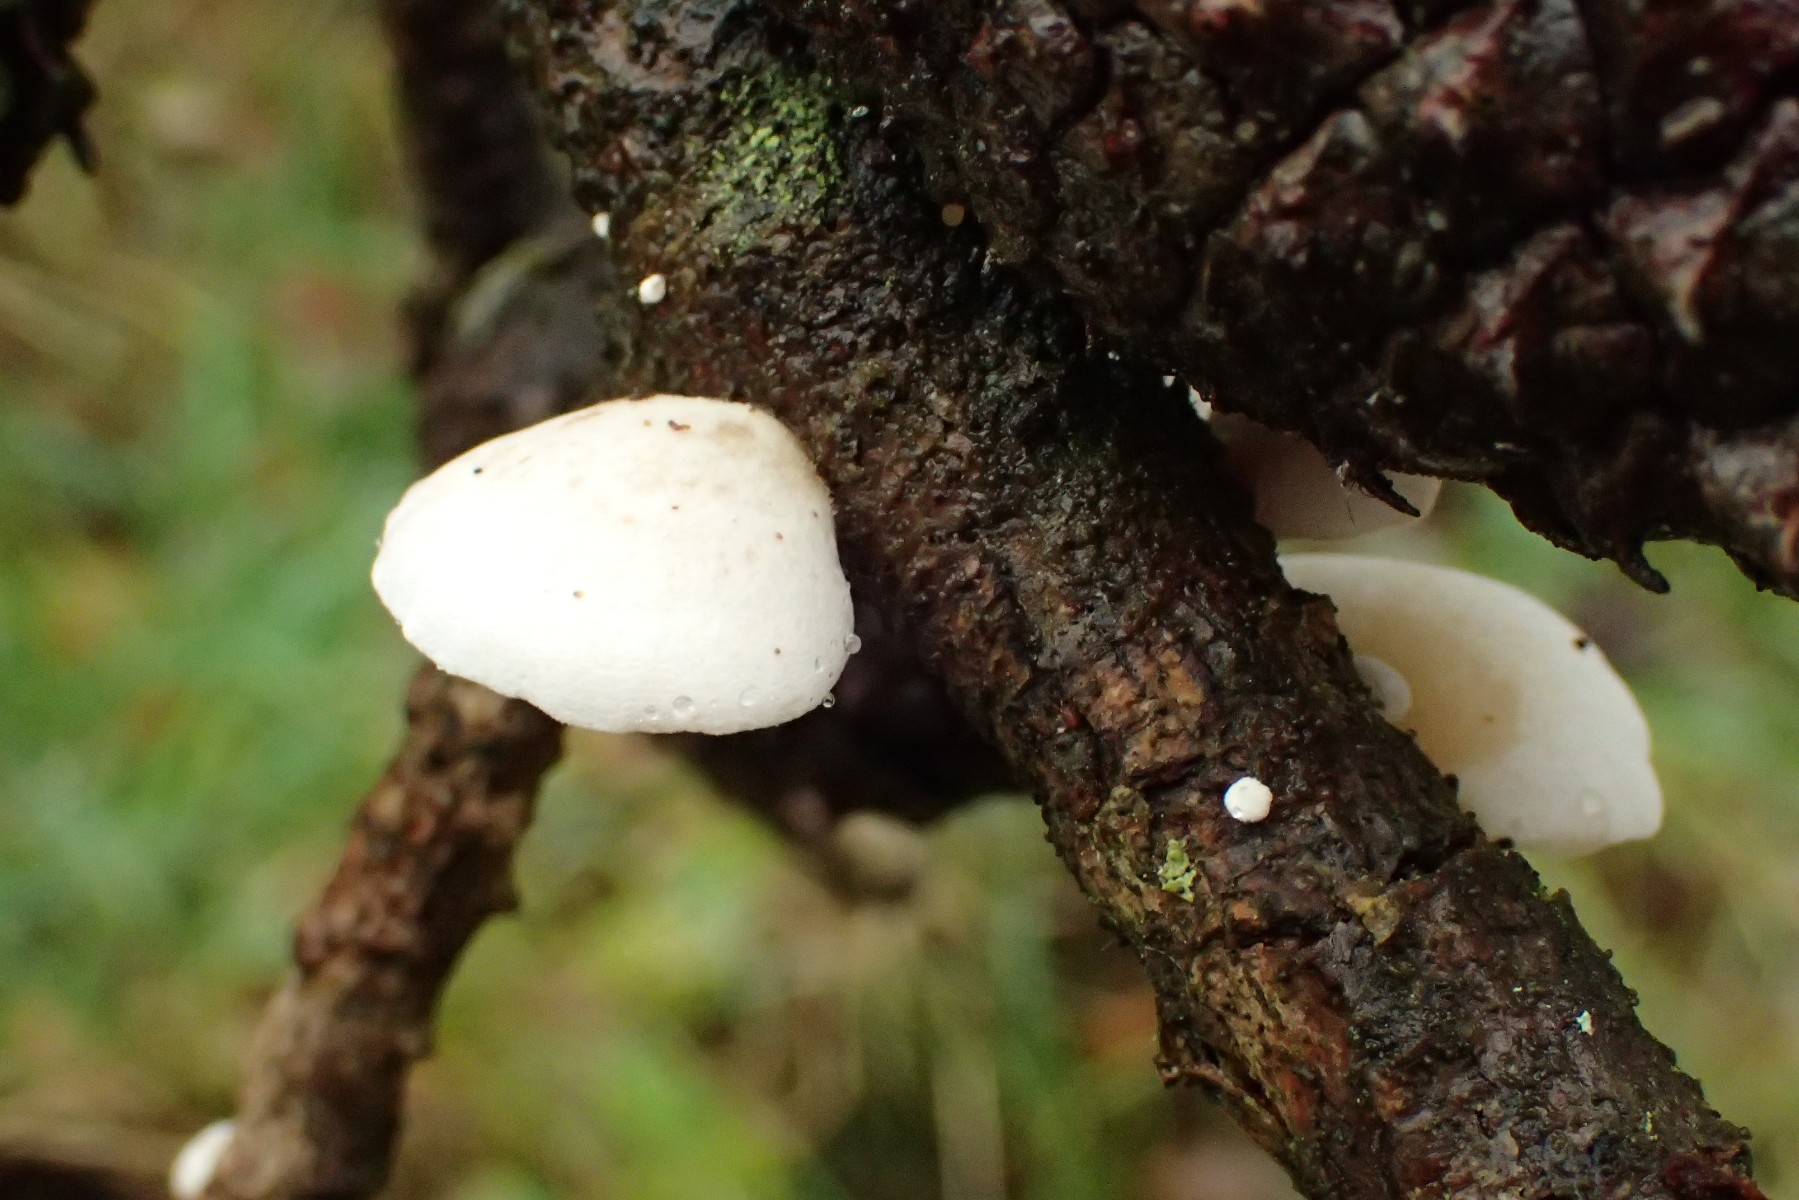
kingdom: Fungi
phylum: Basidiomycota
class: Agaricomycetes
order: Agaricales
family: Mycenaceae
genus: Panellus
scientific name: Panellus mitis
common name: mild epaulethat
